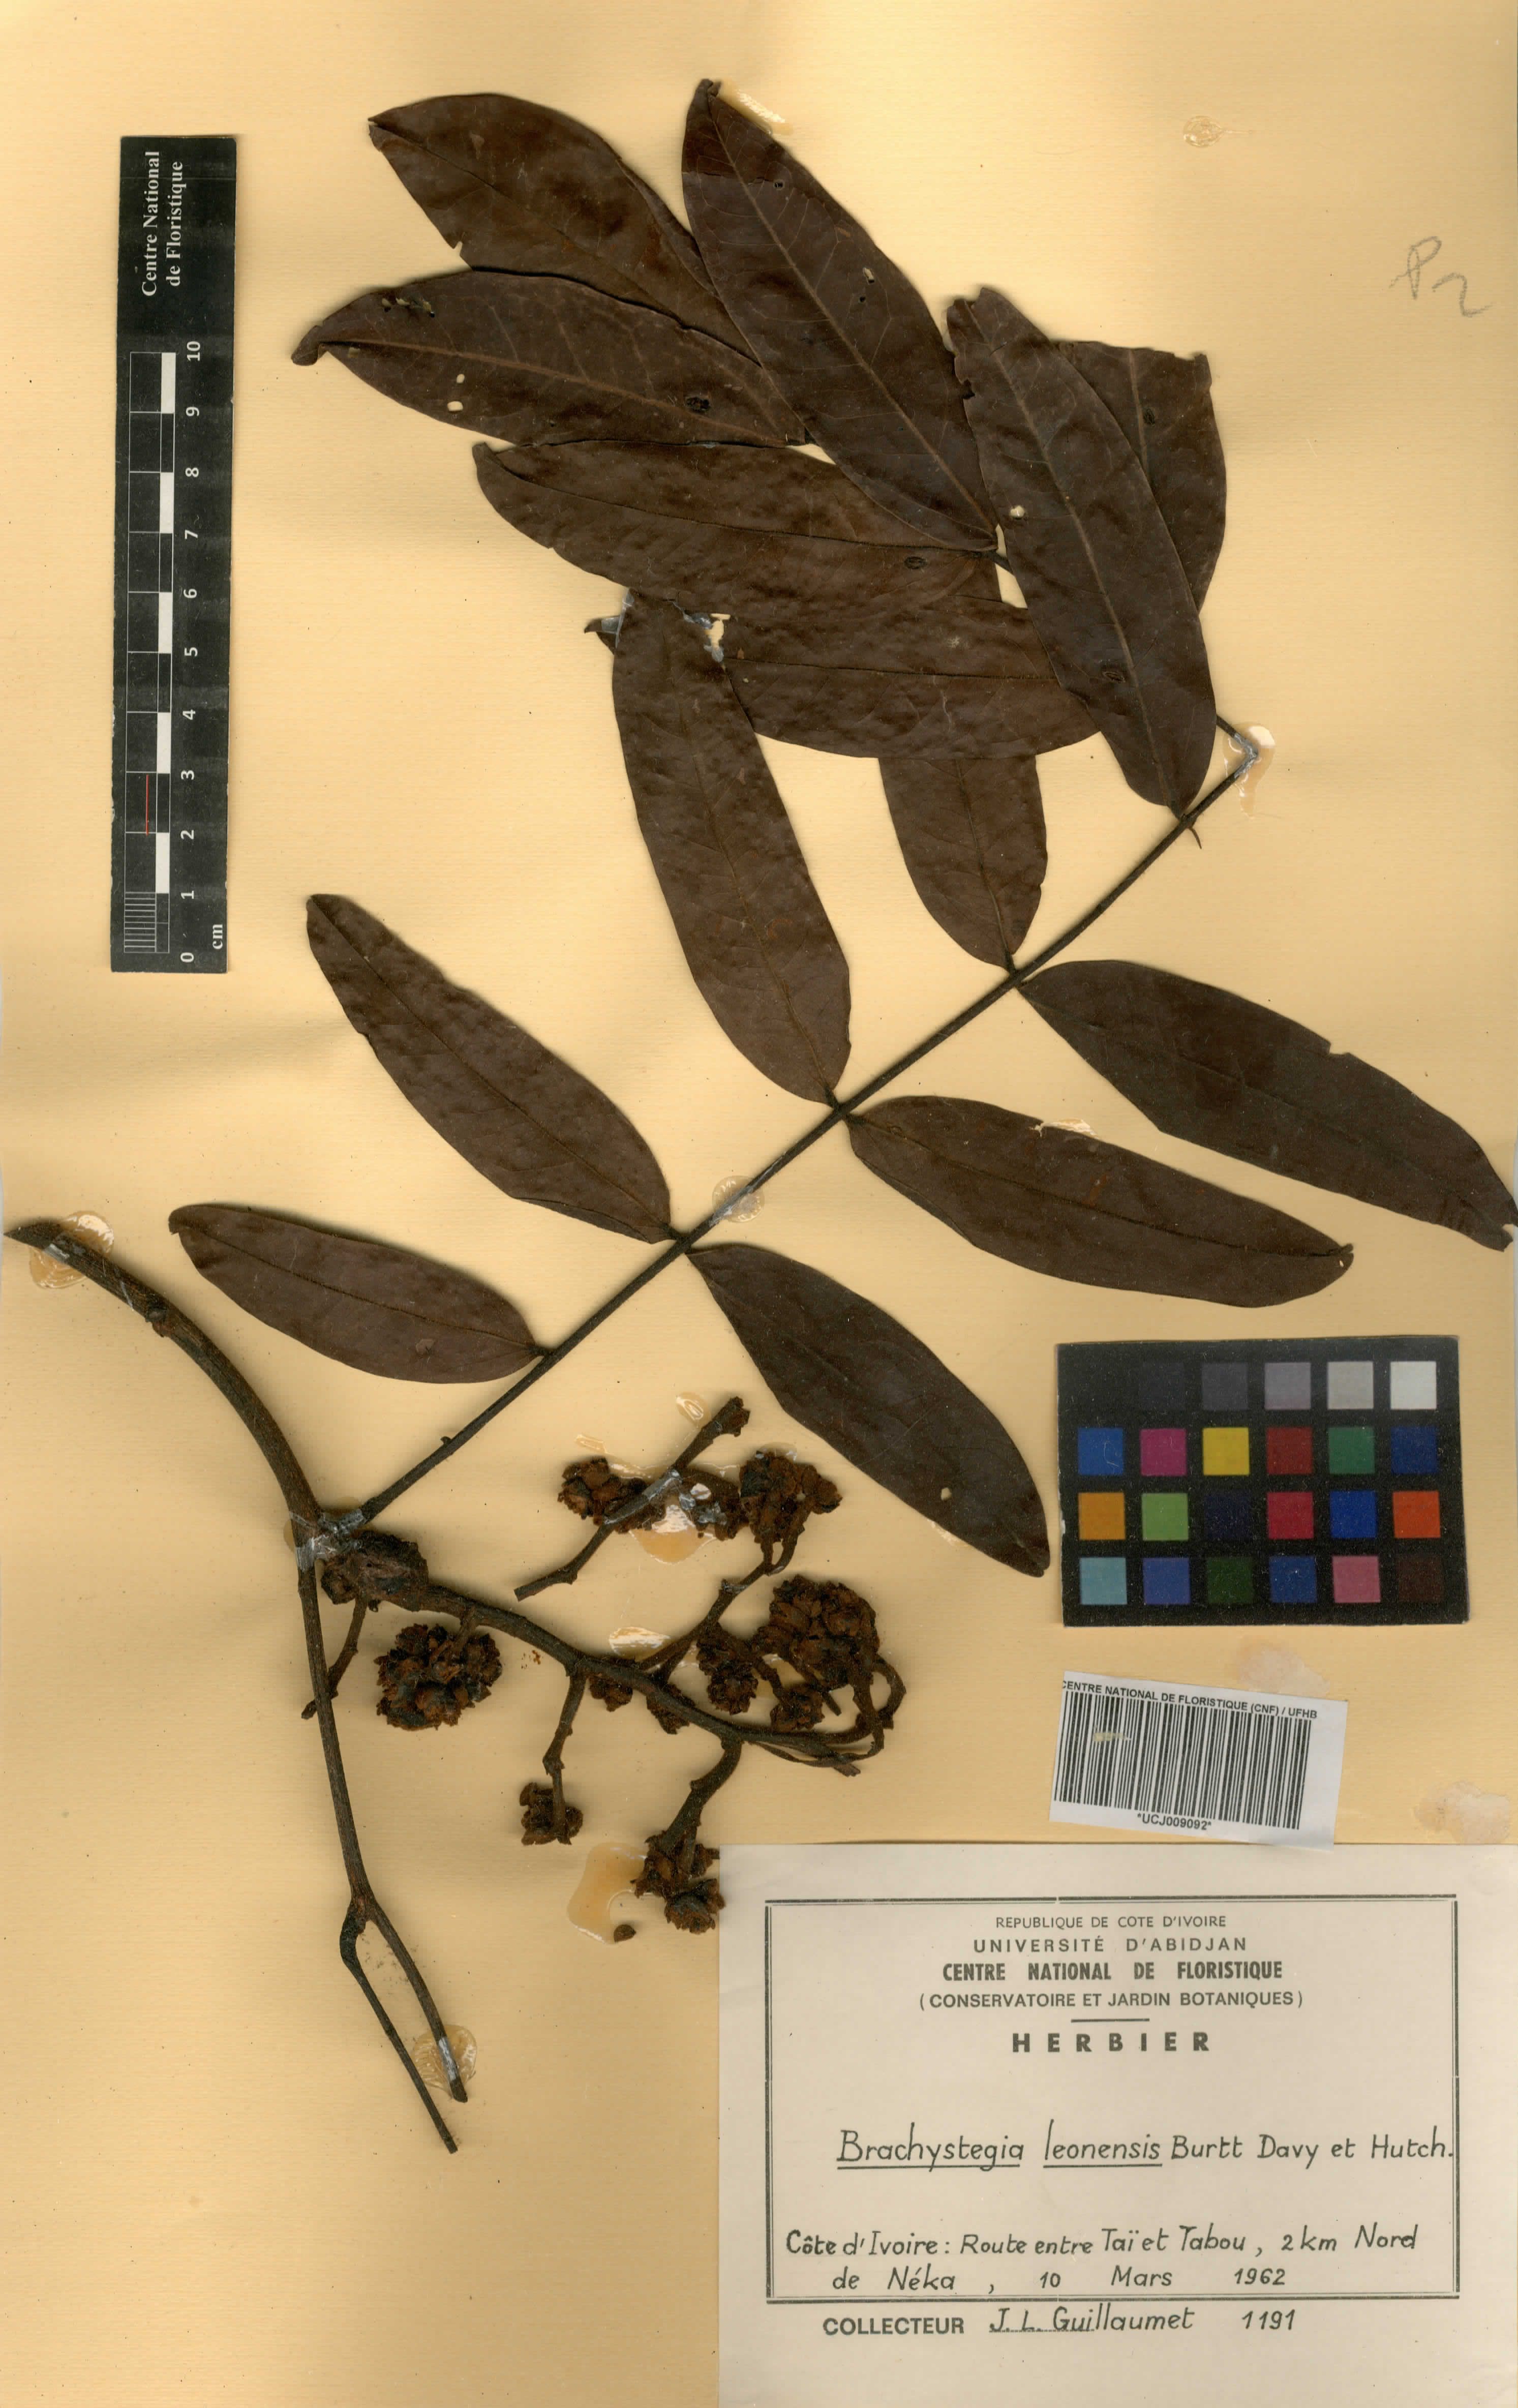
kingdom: Plantae
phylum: Tracheophyta
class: Magnoliopsida
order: Fabales
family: Fabaceae
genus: Brachystegia
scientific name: Brachystegia leonensis
